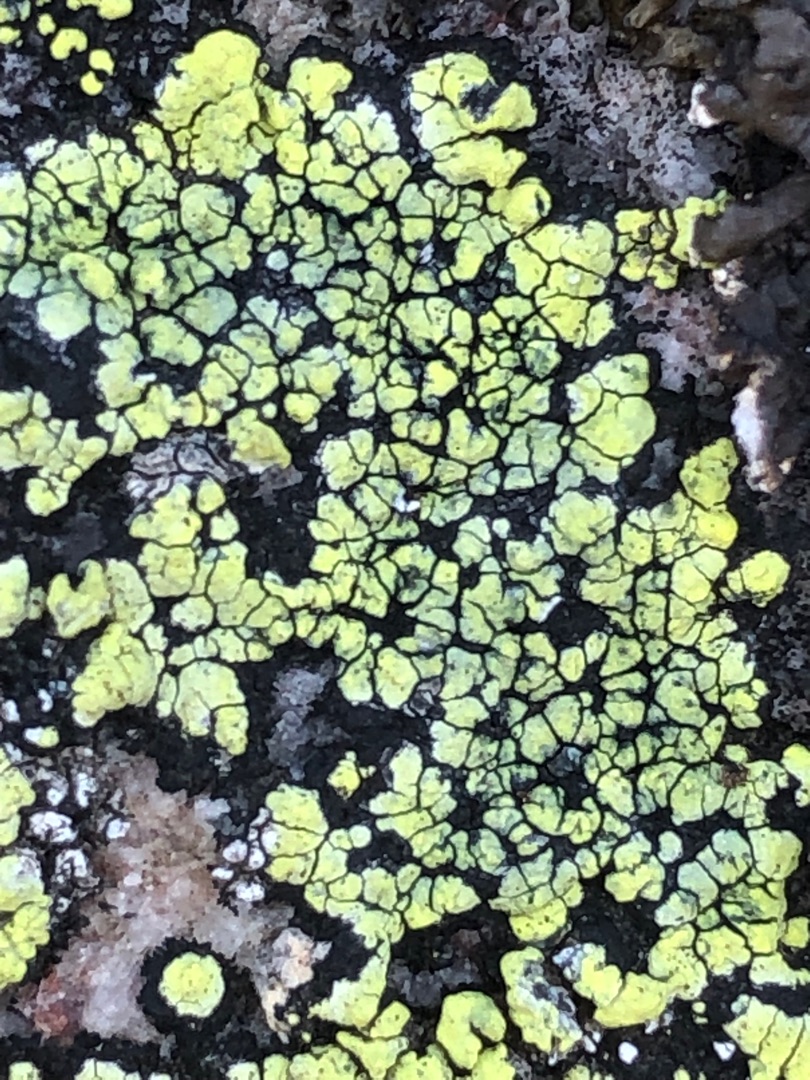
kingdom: Fungi
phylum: Ascomycota
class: Lecanoromycetes
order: Rhizocarpales
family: Rhizocarpaceae
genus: Rhizocarpon
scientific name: Rhizocarpon geographicum
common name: Gulgrøn landkortlav
